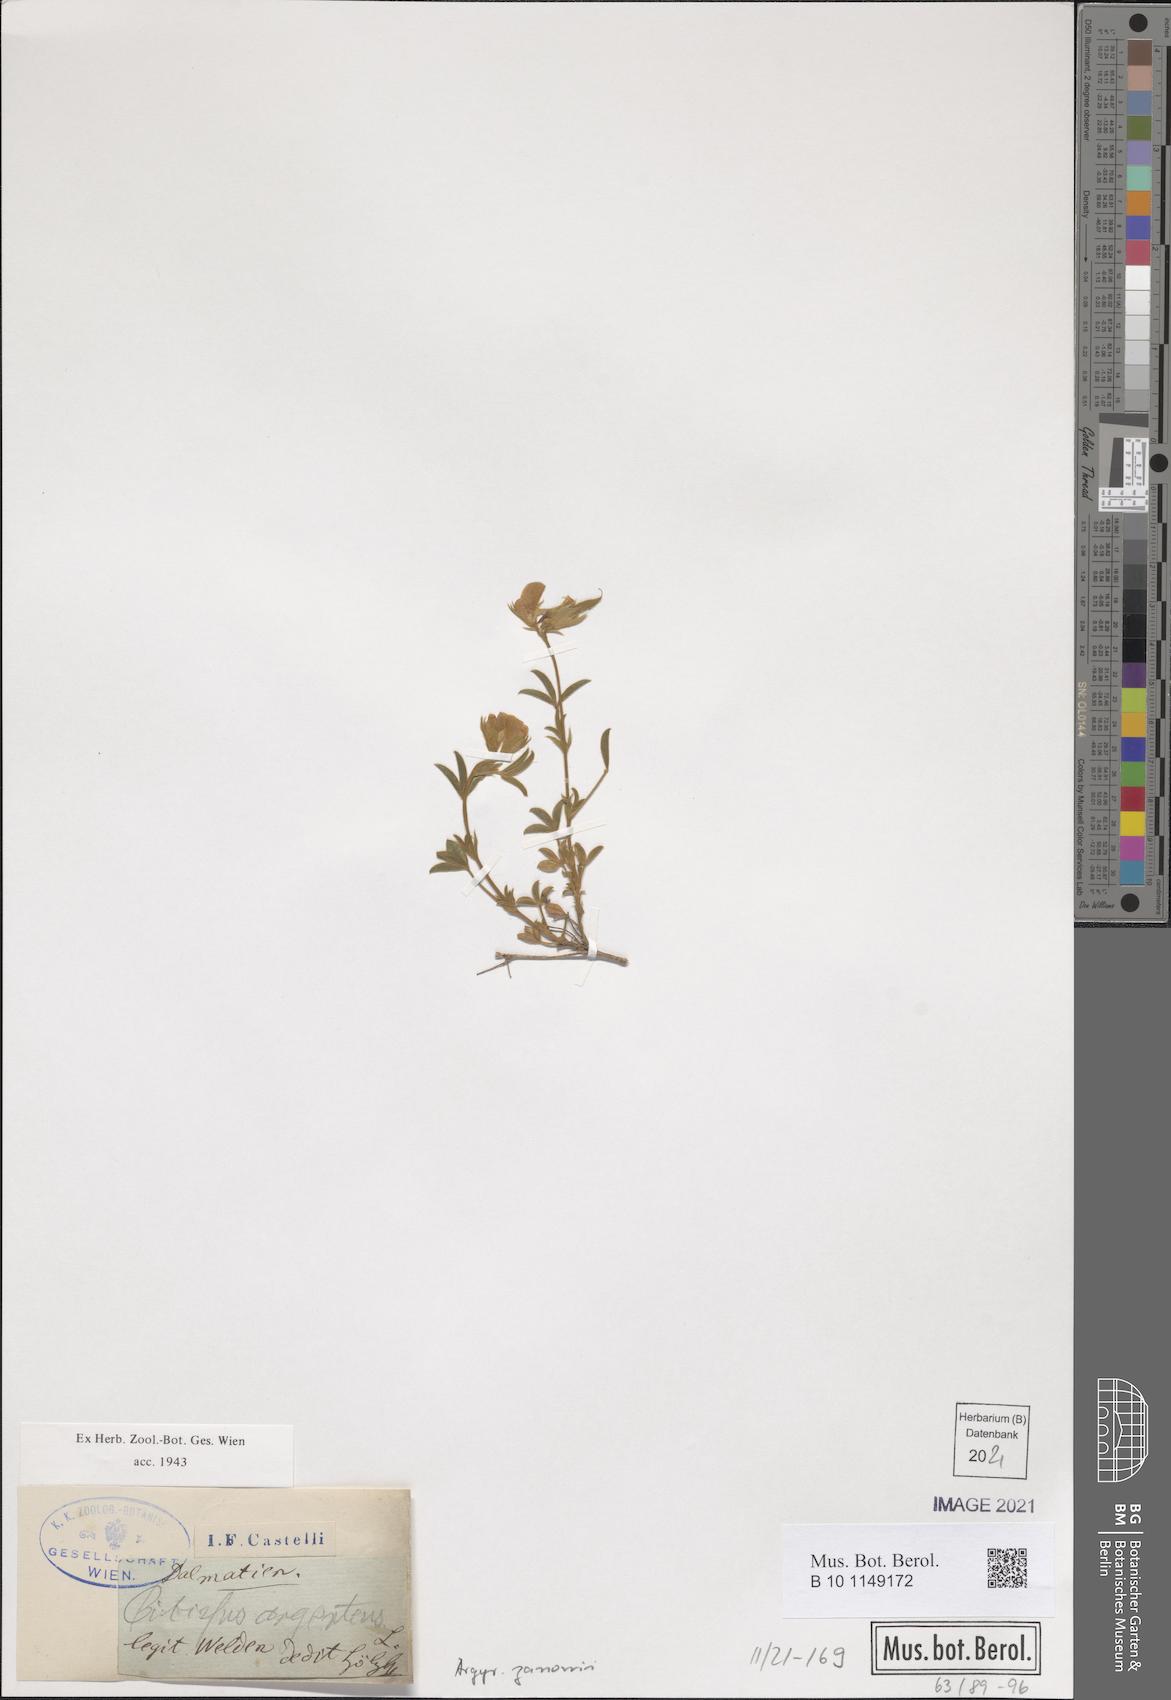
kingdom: Plantae
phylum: Tracheophyta
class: Magnoliopsida
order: Fabales
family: Fabaceae
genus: Argyrolobium
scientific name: Argyrolobium zanonii
